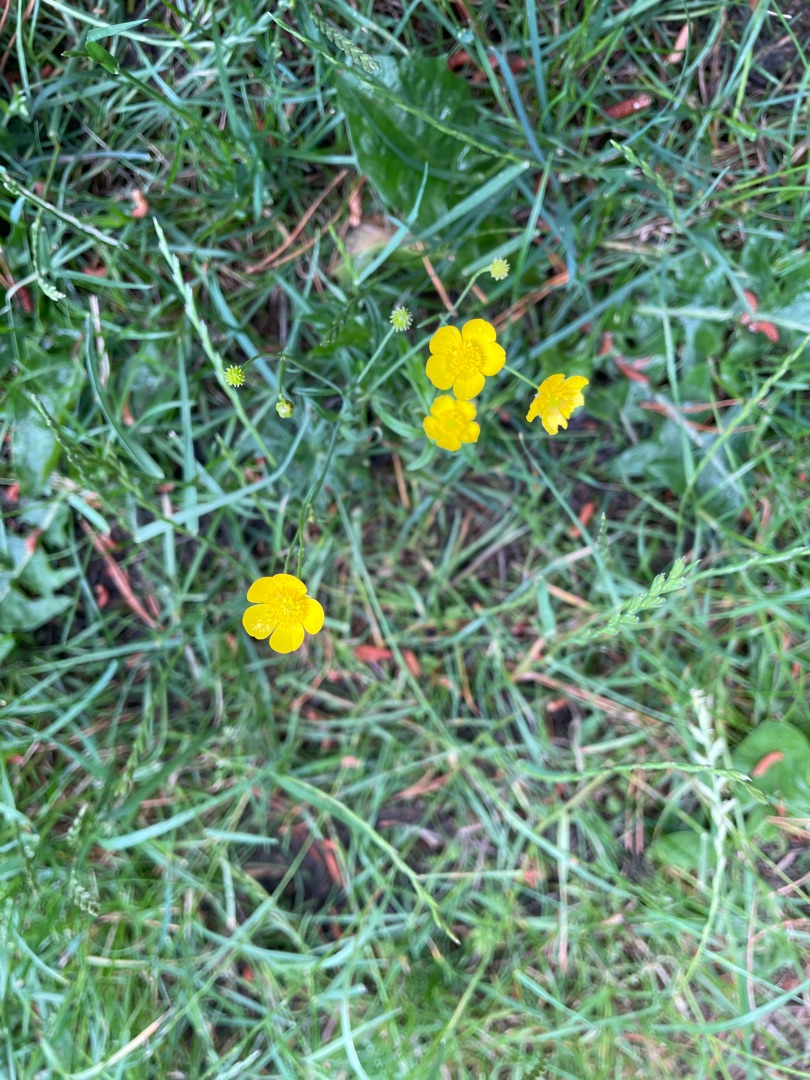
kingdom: Plantae
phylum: Tracheophyta
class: Magnoliopsida
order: Ranunculales
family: Ranunculaceae
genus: Ranunculus
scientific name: Ranunculus acris
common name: Bidende ranunkel
